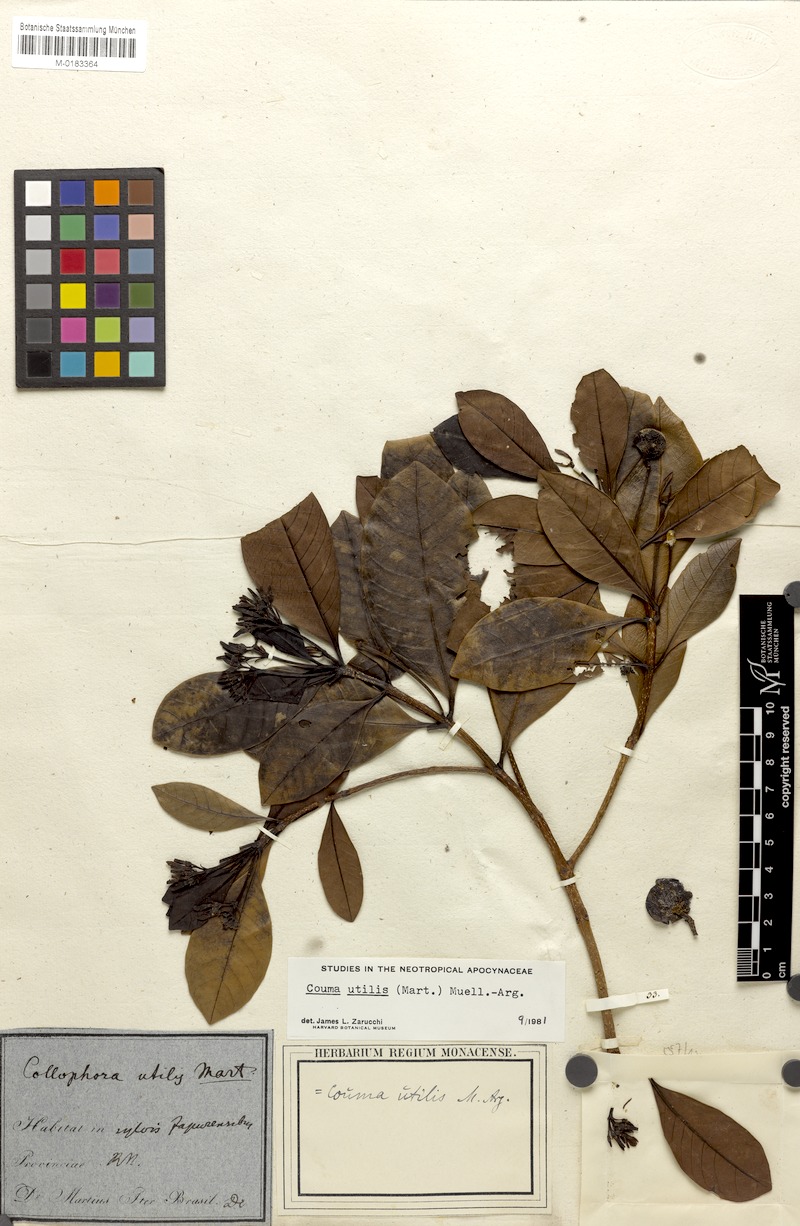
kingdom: Plantae
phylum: Tracheophyta
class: Magnoliopsida
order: Gentianales
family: Apocynaceae
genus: Couma
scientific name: Couma utilis
